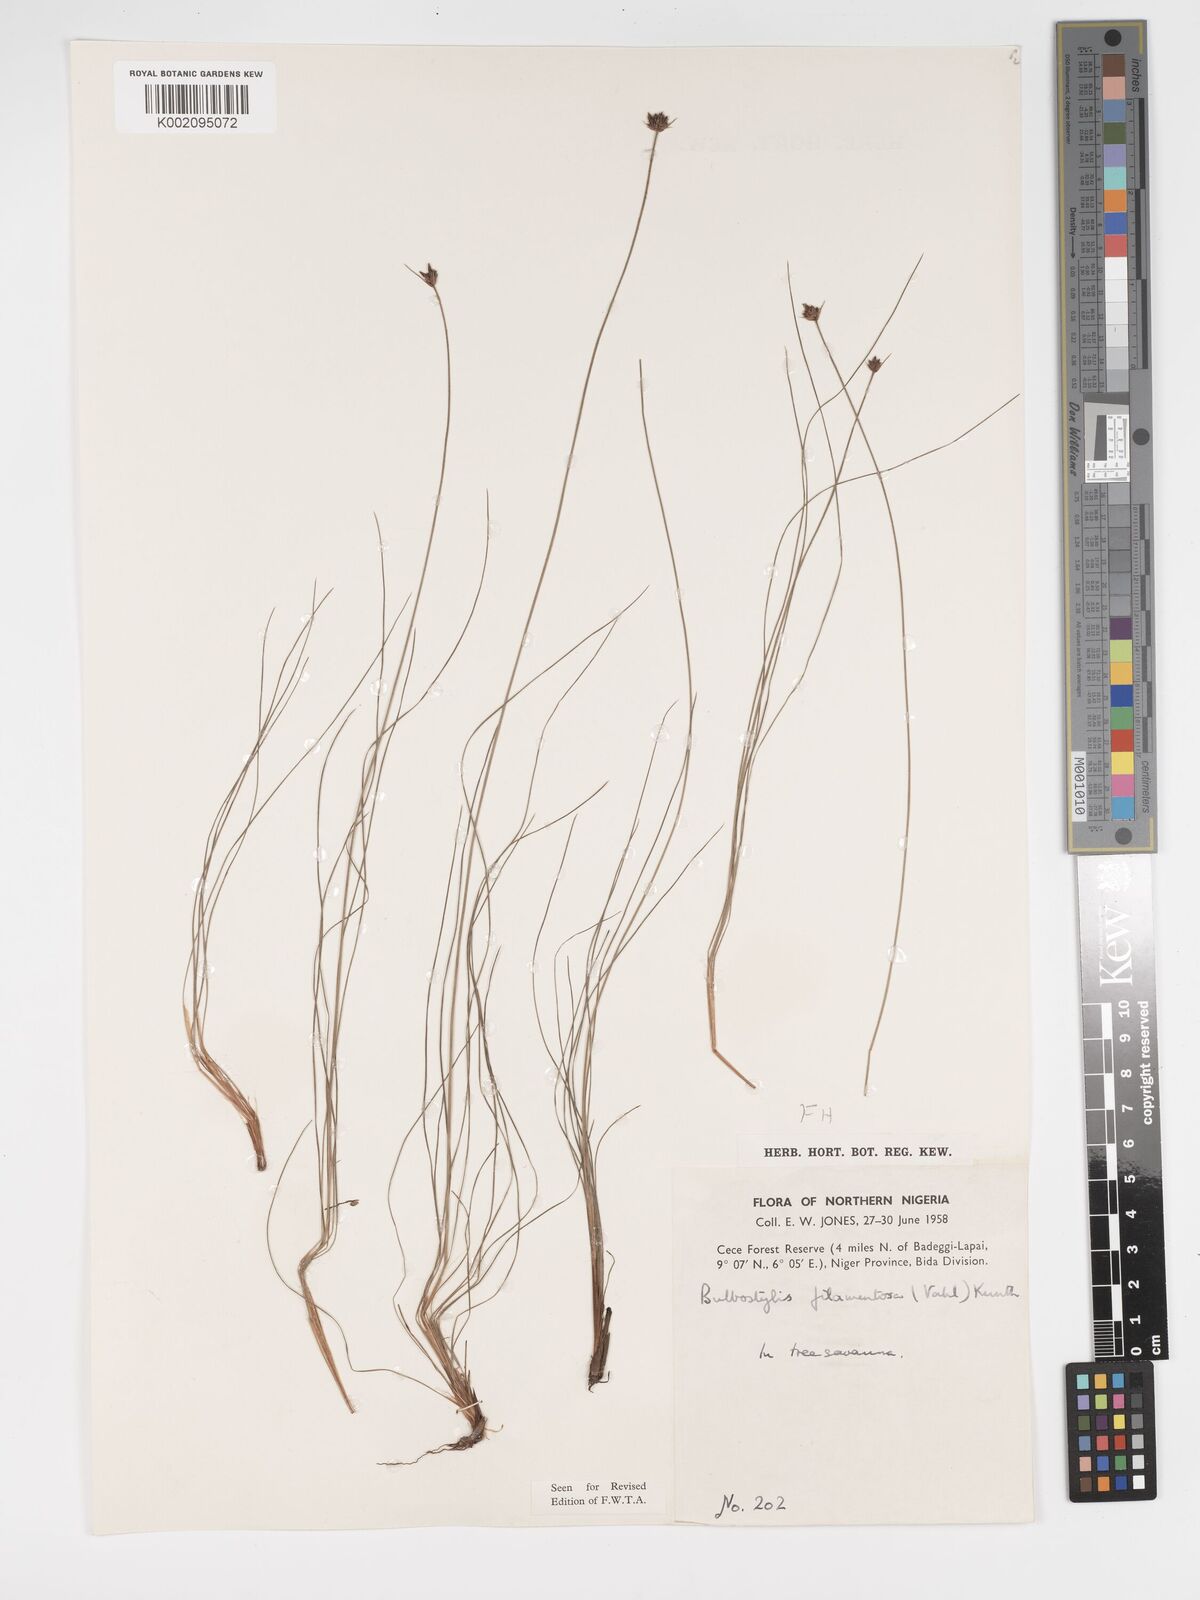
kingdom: Plantae
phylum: Tracheophyta
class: Liliopsida
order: Poales
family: Cyperaceae
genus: Bulbostylis
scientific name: Bulbostylis scabricaulis
